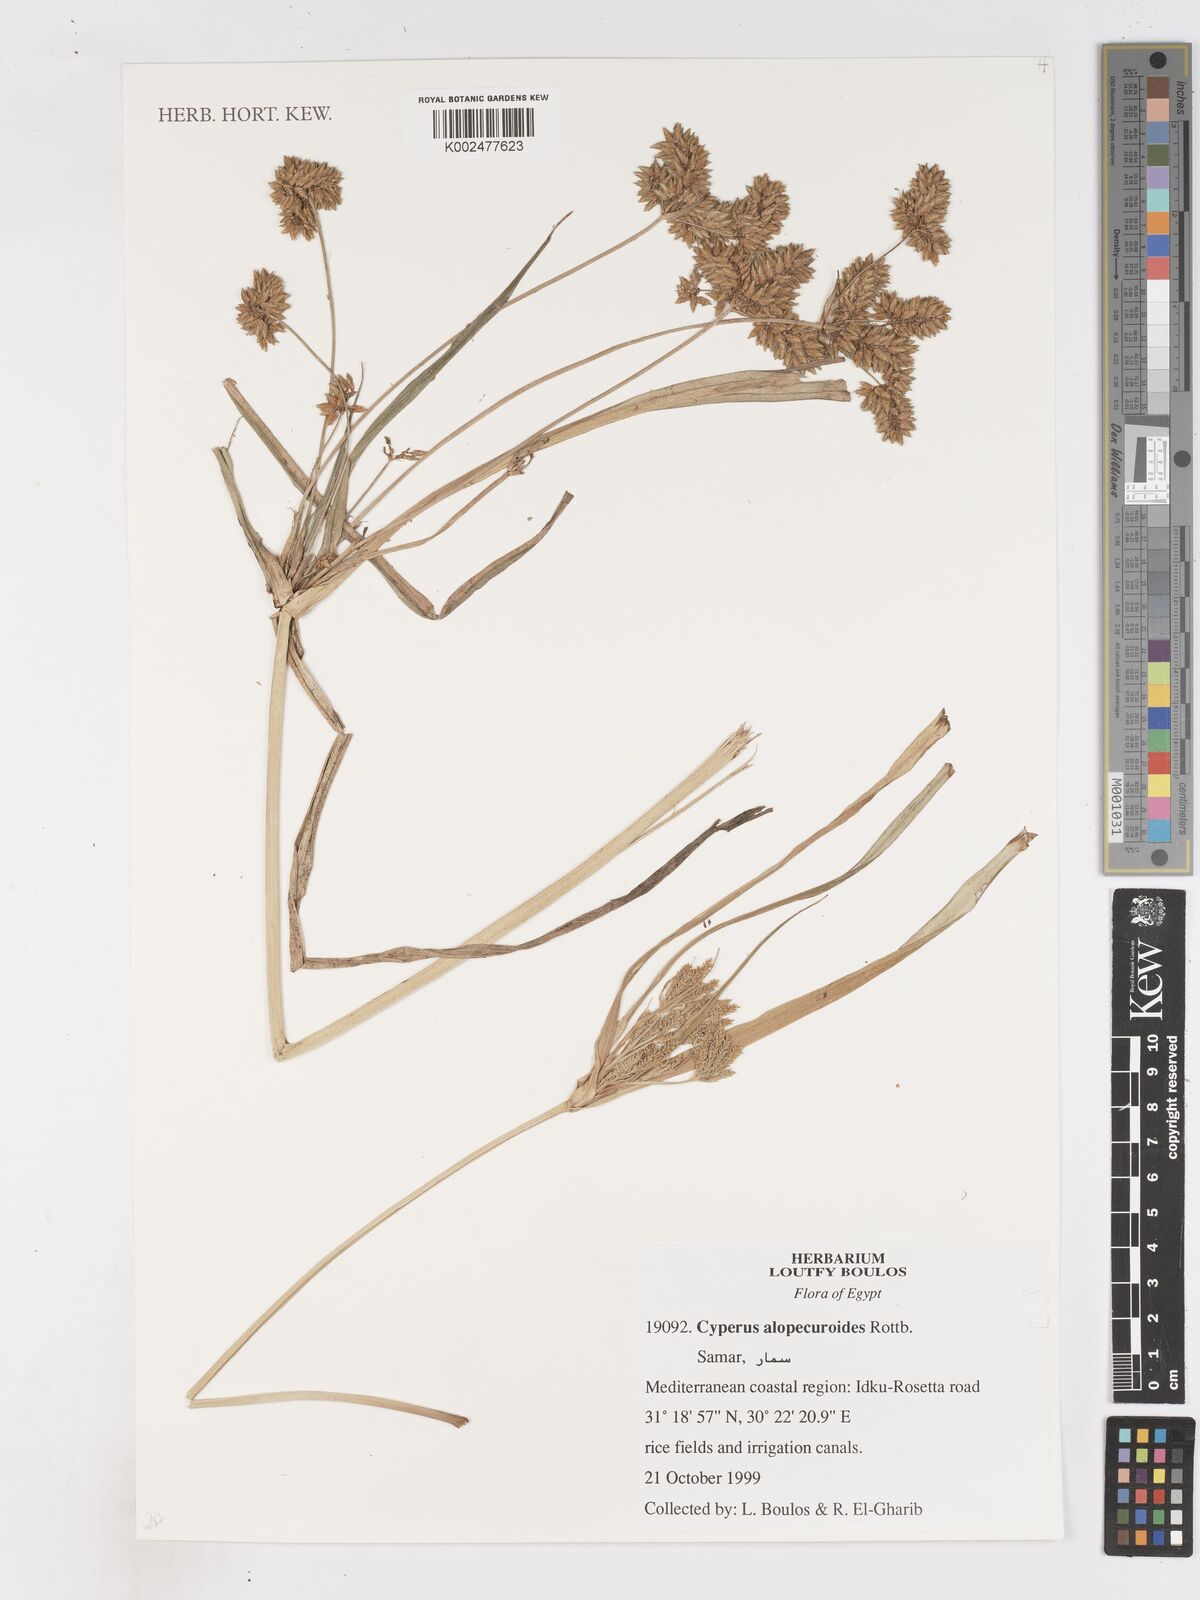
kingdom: Plantae
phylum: Tracheophyta
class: Liliopsida
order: Poales
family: Cyperaceae
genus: Cyperus
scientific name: Cyperus alopecuroides
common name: Foxtail flatsedge
